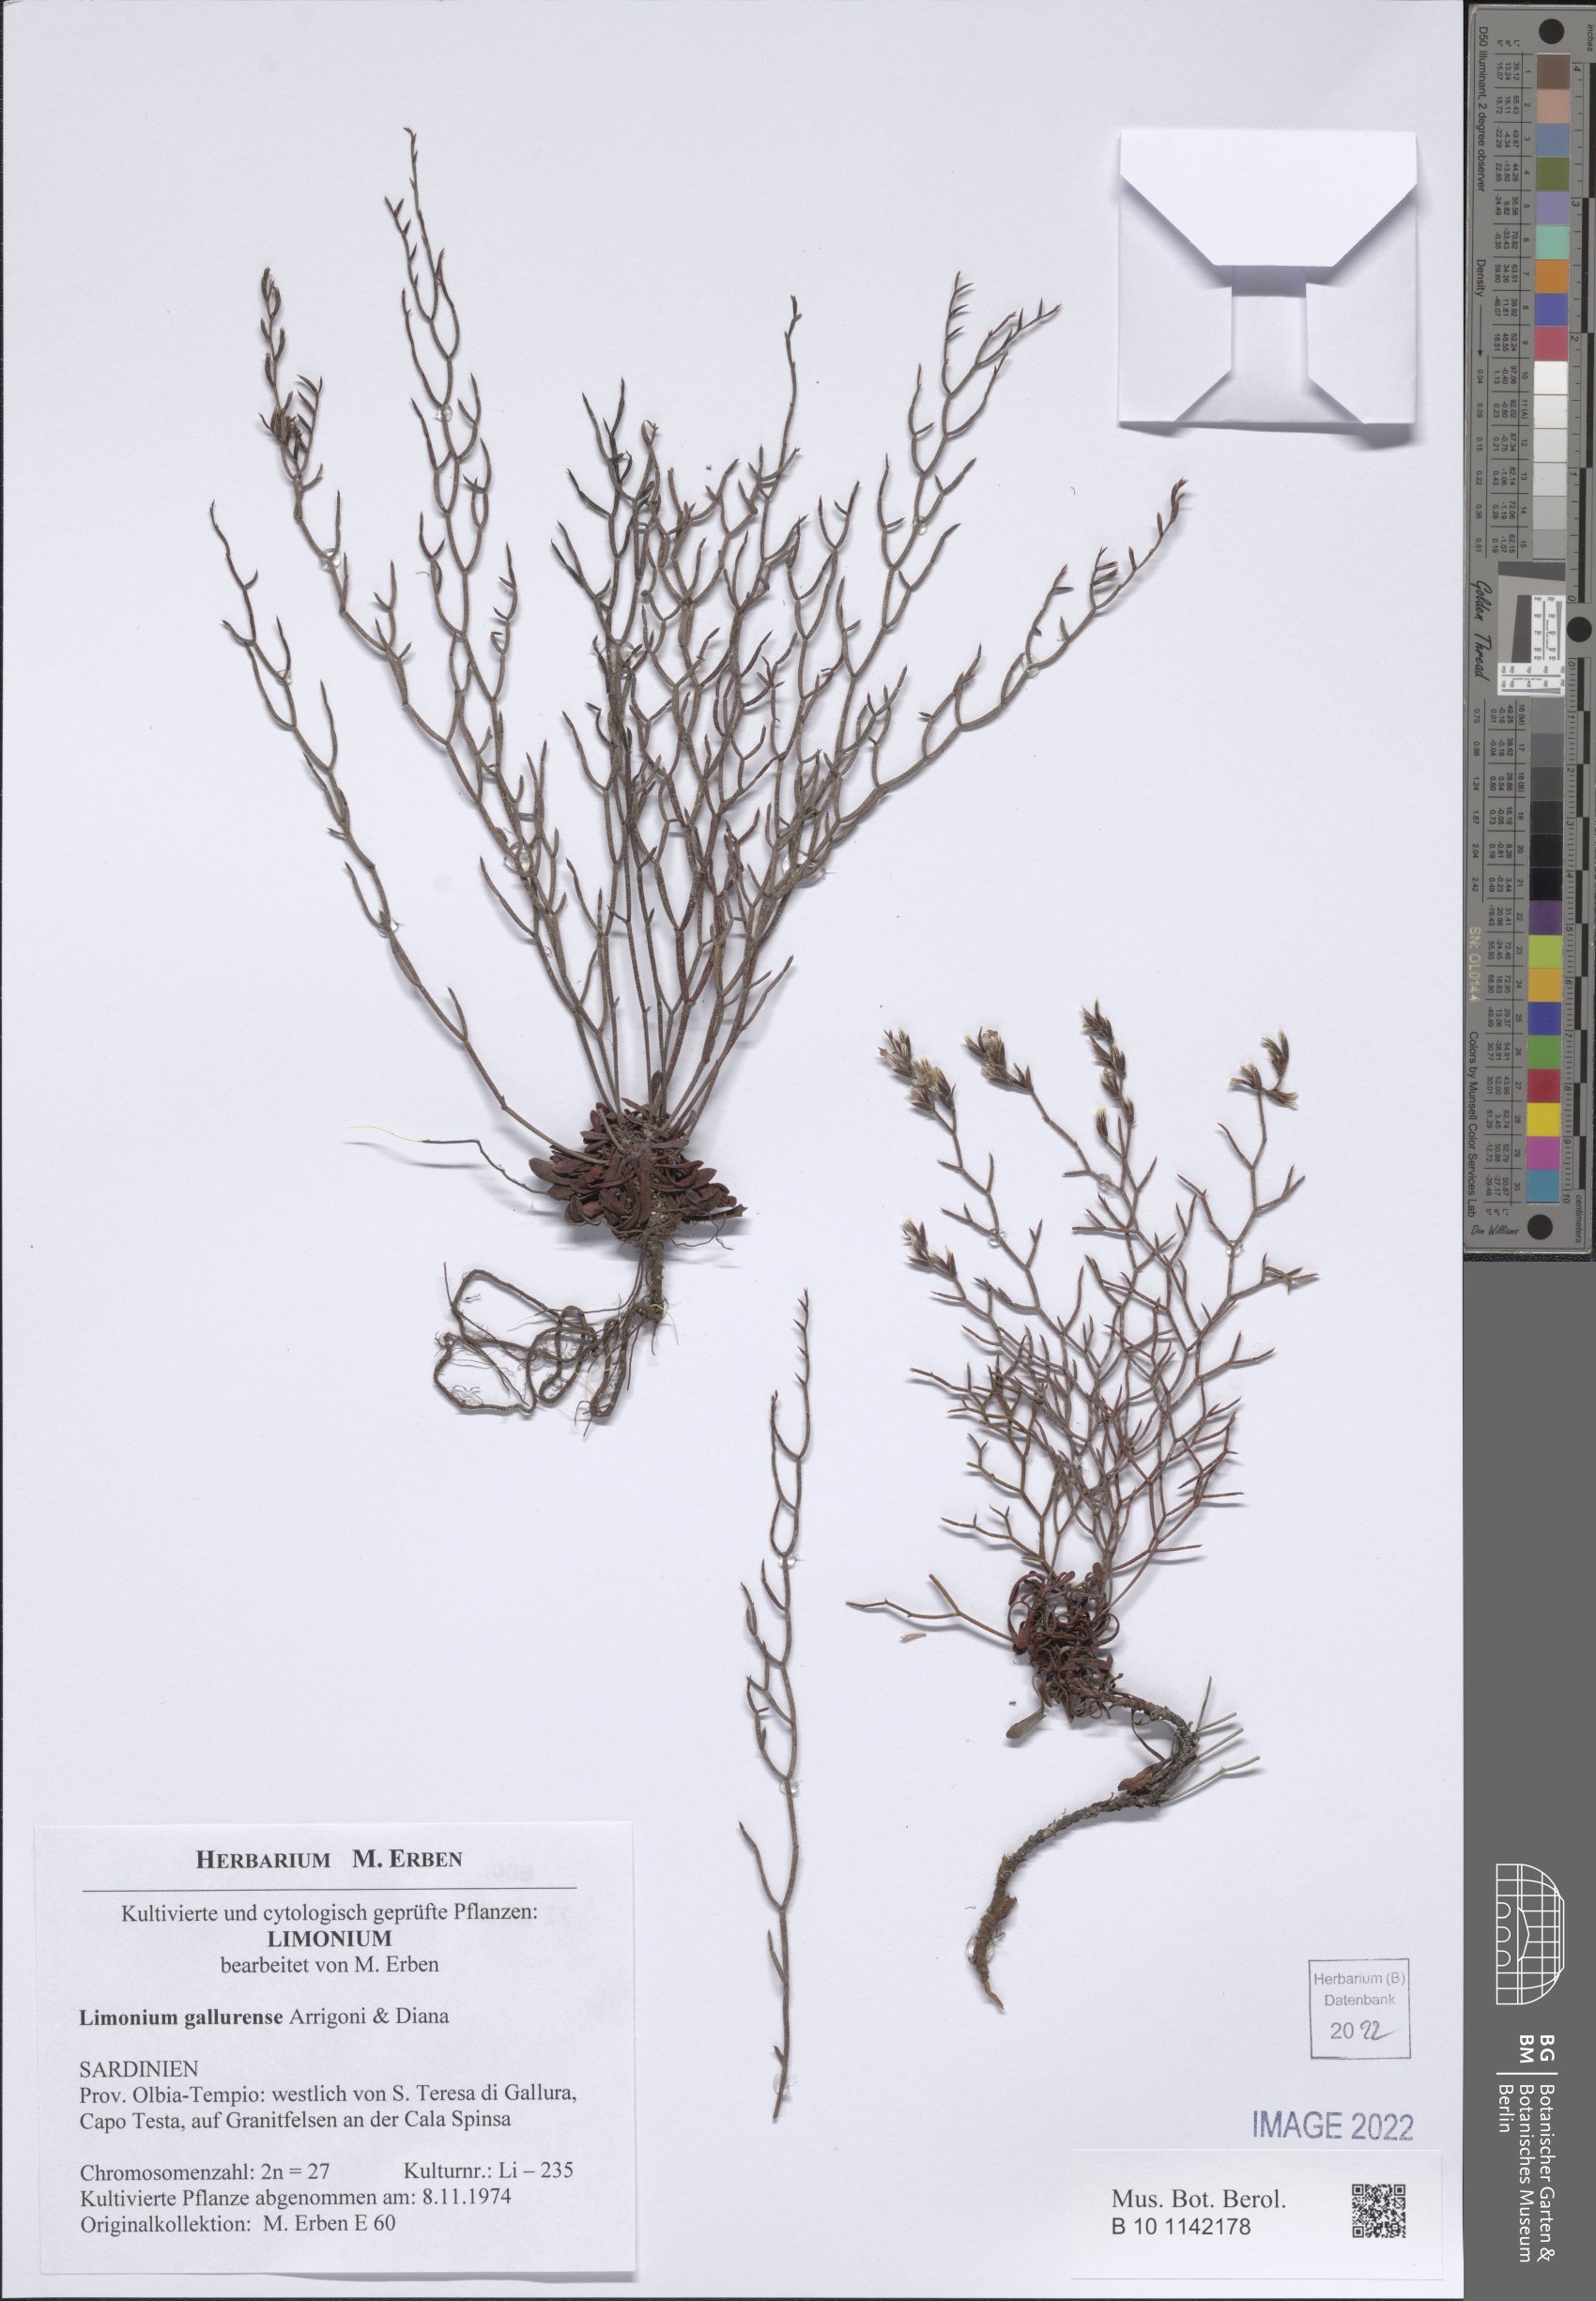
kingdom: Plantae
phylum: Tracheophyta
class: Magnoliopsida
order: Caryophyllales
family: Plumbaginaceae
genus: Limonium
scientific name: Limonium gallurense
